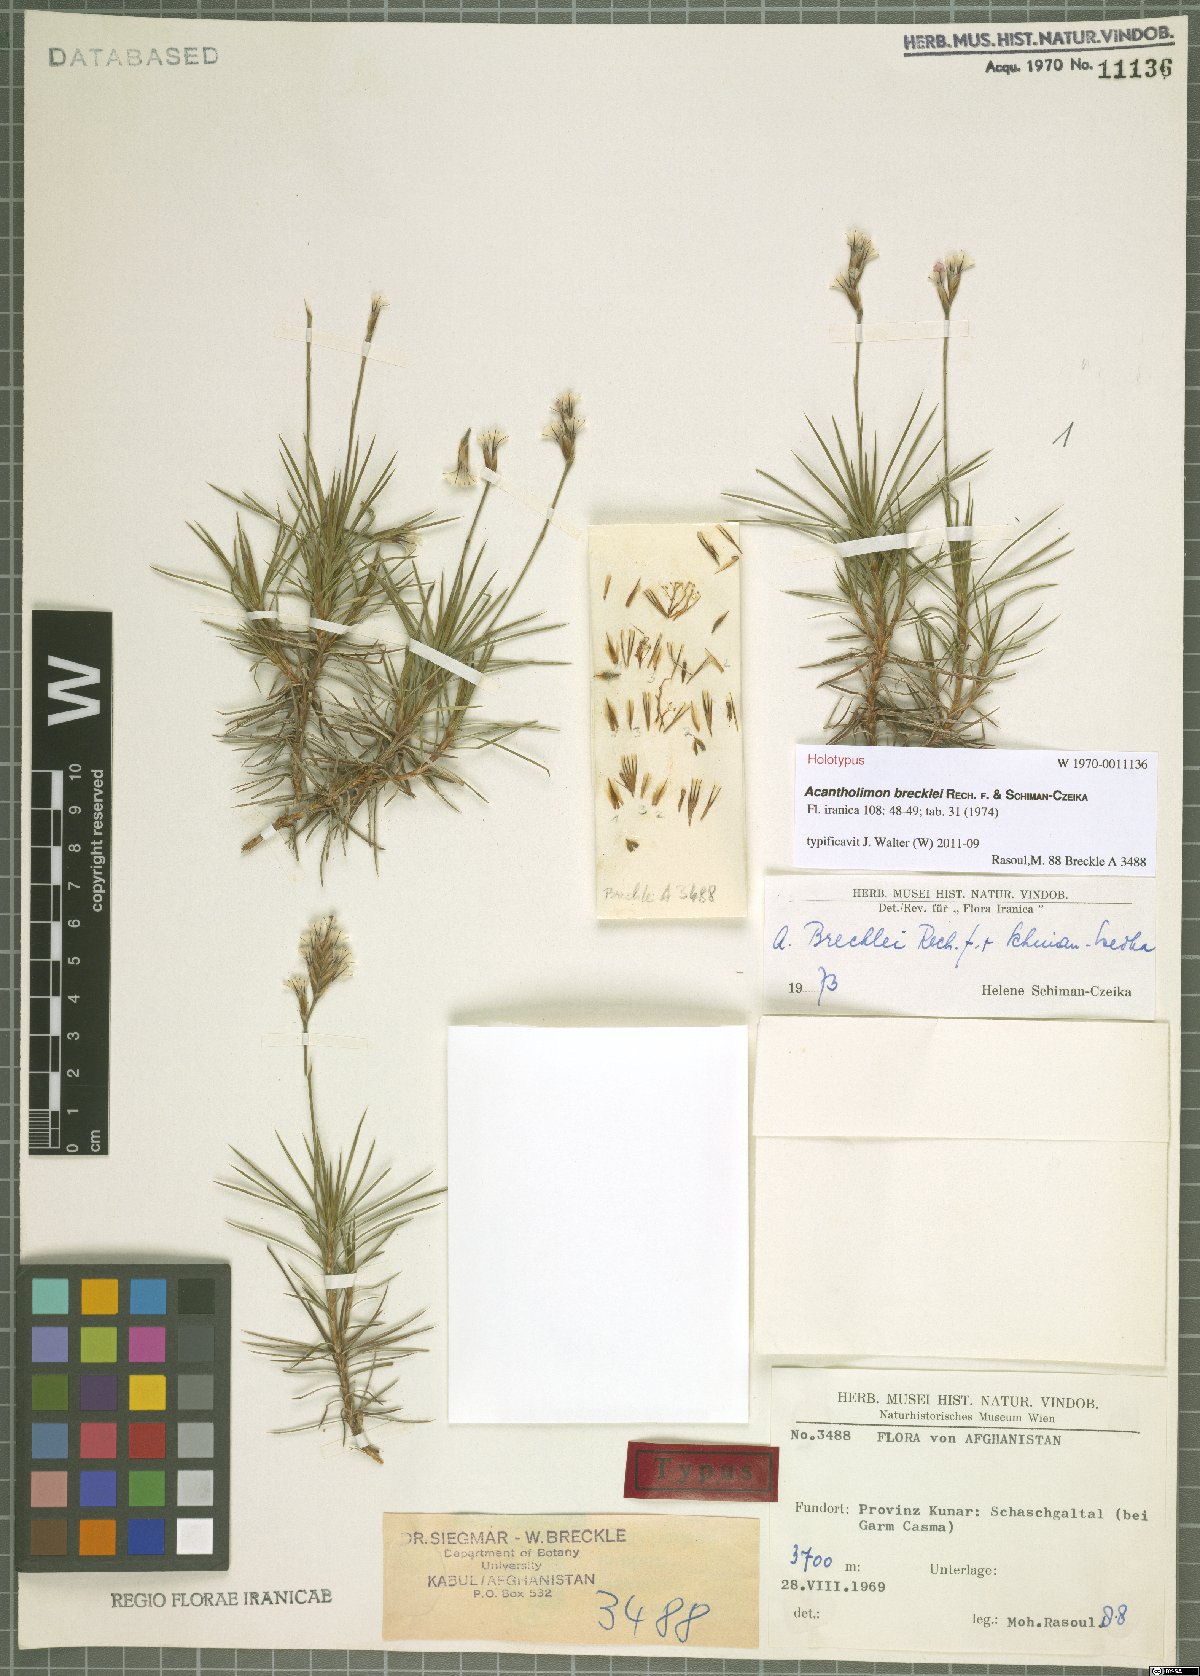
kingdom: Plantae
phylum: Tracheophyta
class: Magnoliopsida
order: Caryophyllales
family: Plumbaginaceae
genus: Acantholimon
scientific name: Acantholimon brecklei
